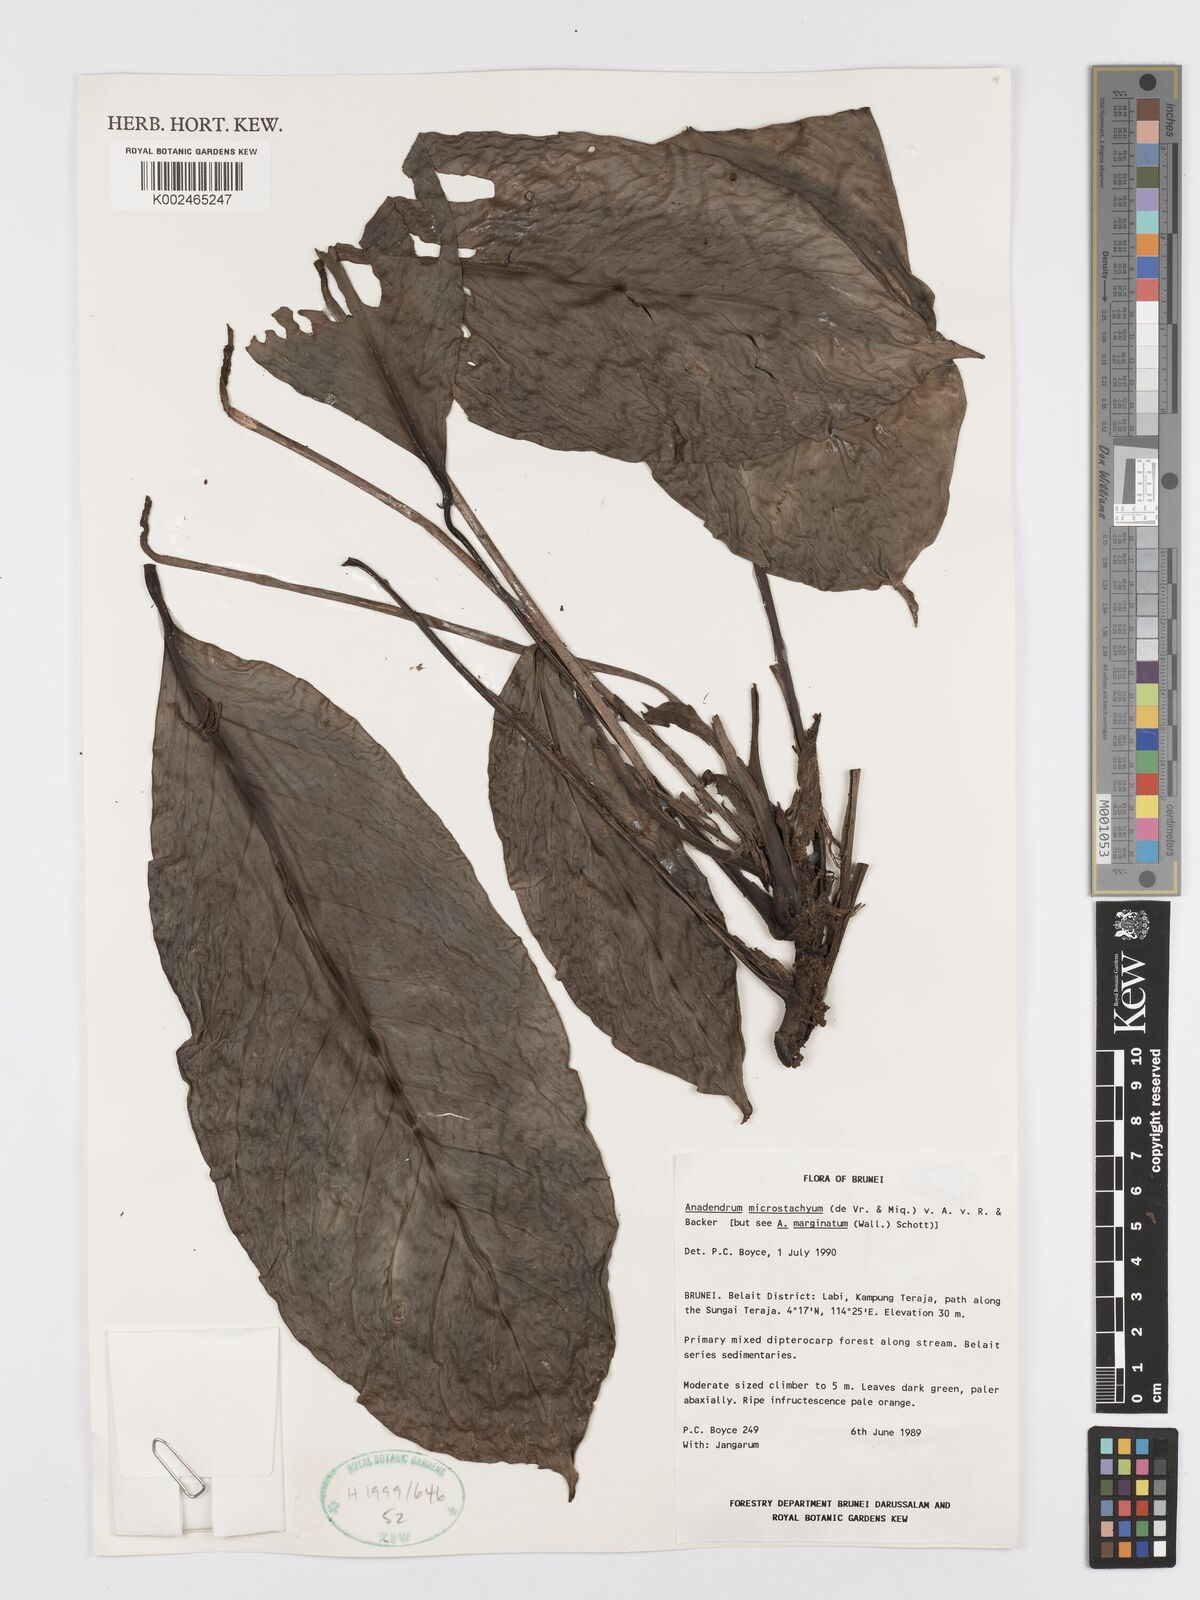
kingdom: Plantae
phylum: Tracheophyta
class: Liliopsida
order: Alismatales
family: Araceae
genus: Anadendrum
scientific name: Anadendrum microstachyum
